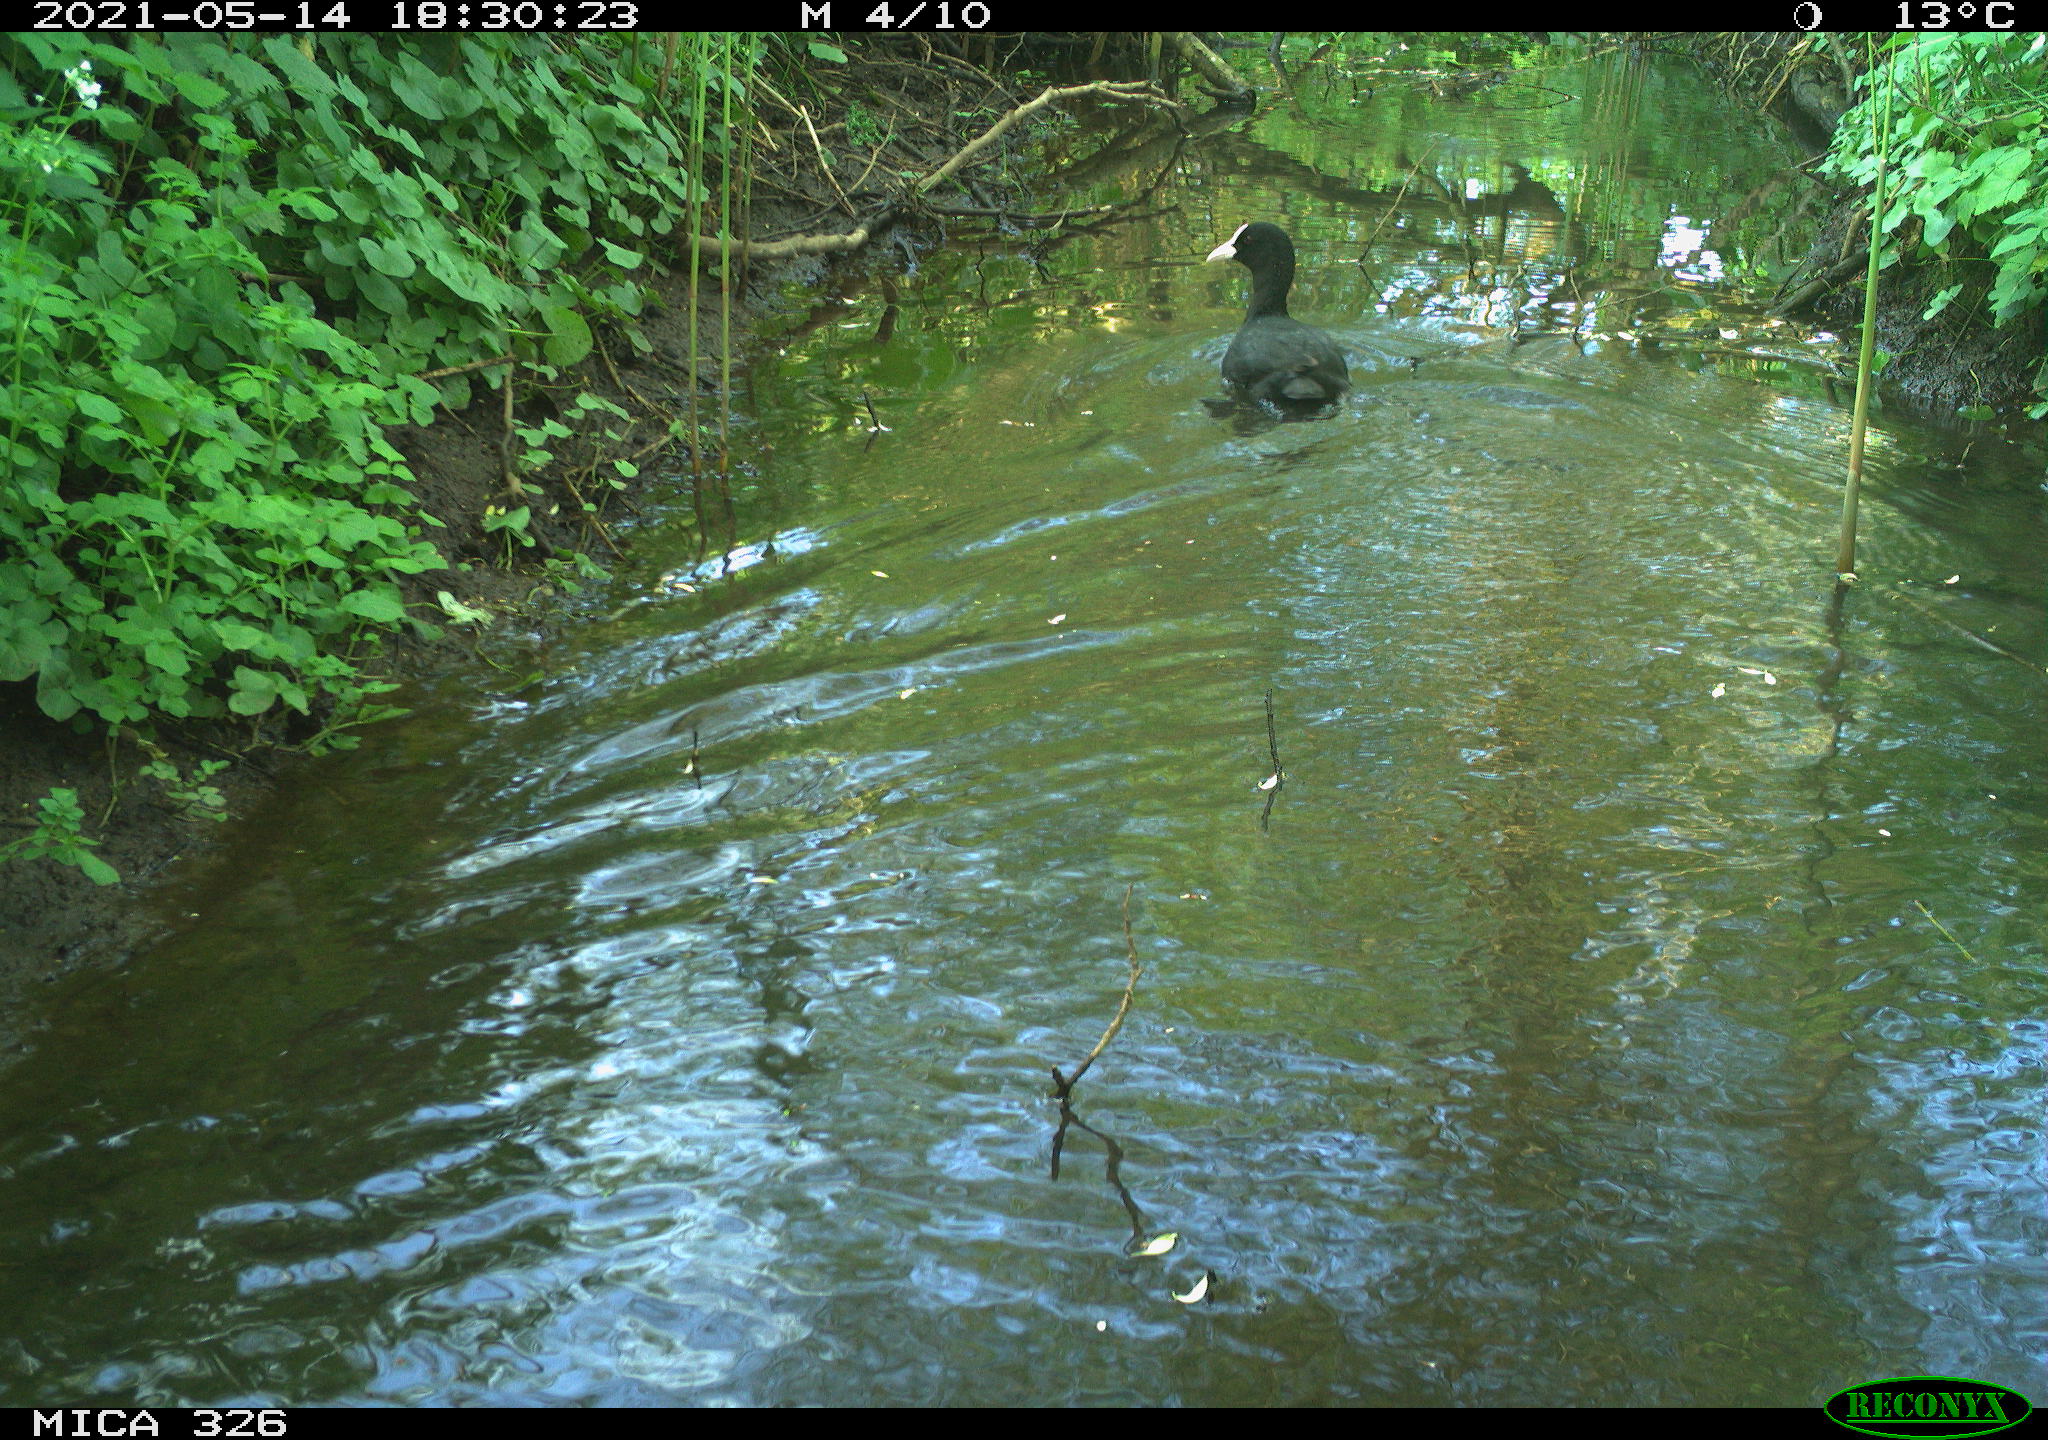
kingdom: Animalia
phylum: Chordata
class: Aves
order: Gruiformes
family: Rallidae
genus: Fulica
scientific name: Fulica atra
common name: Eurasian coot
